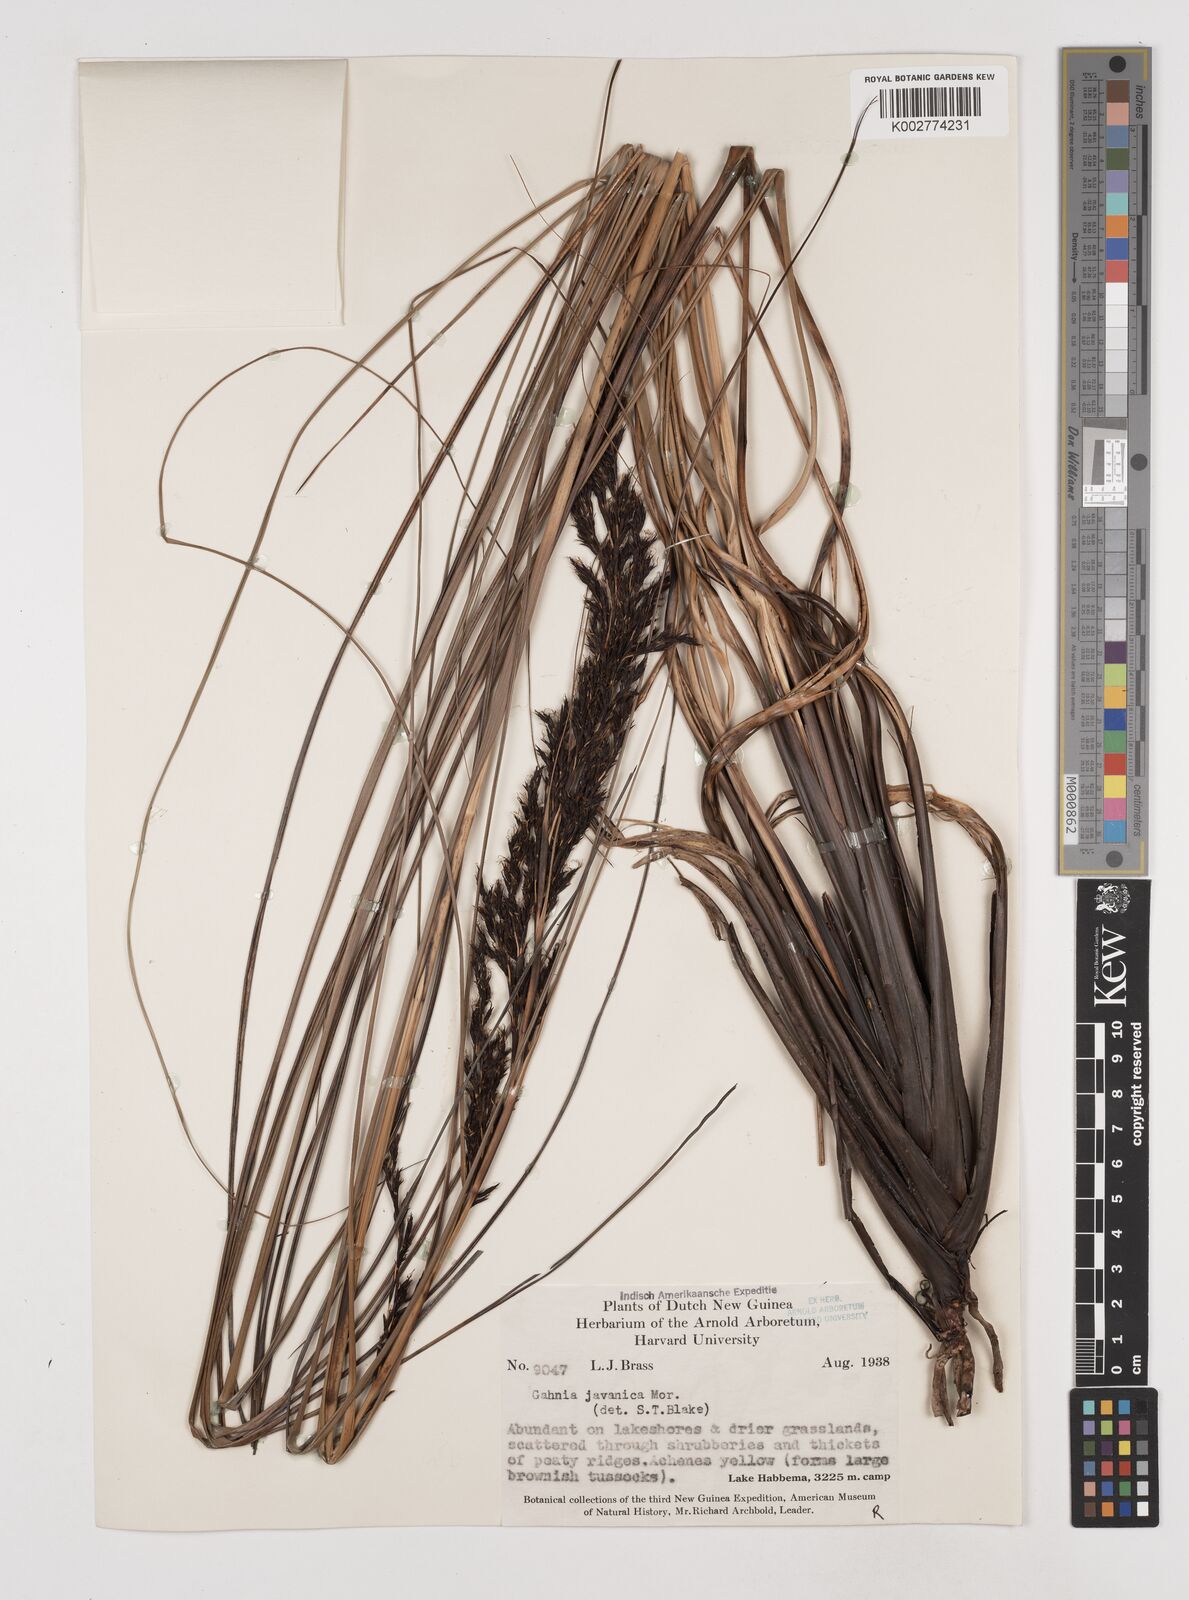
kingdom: Plantae
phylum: Tracheophyta
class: Liliopsida
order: Poales
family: Cyperaceae
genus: Gahnia
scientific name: Gahnia javanica
